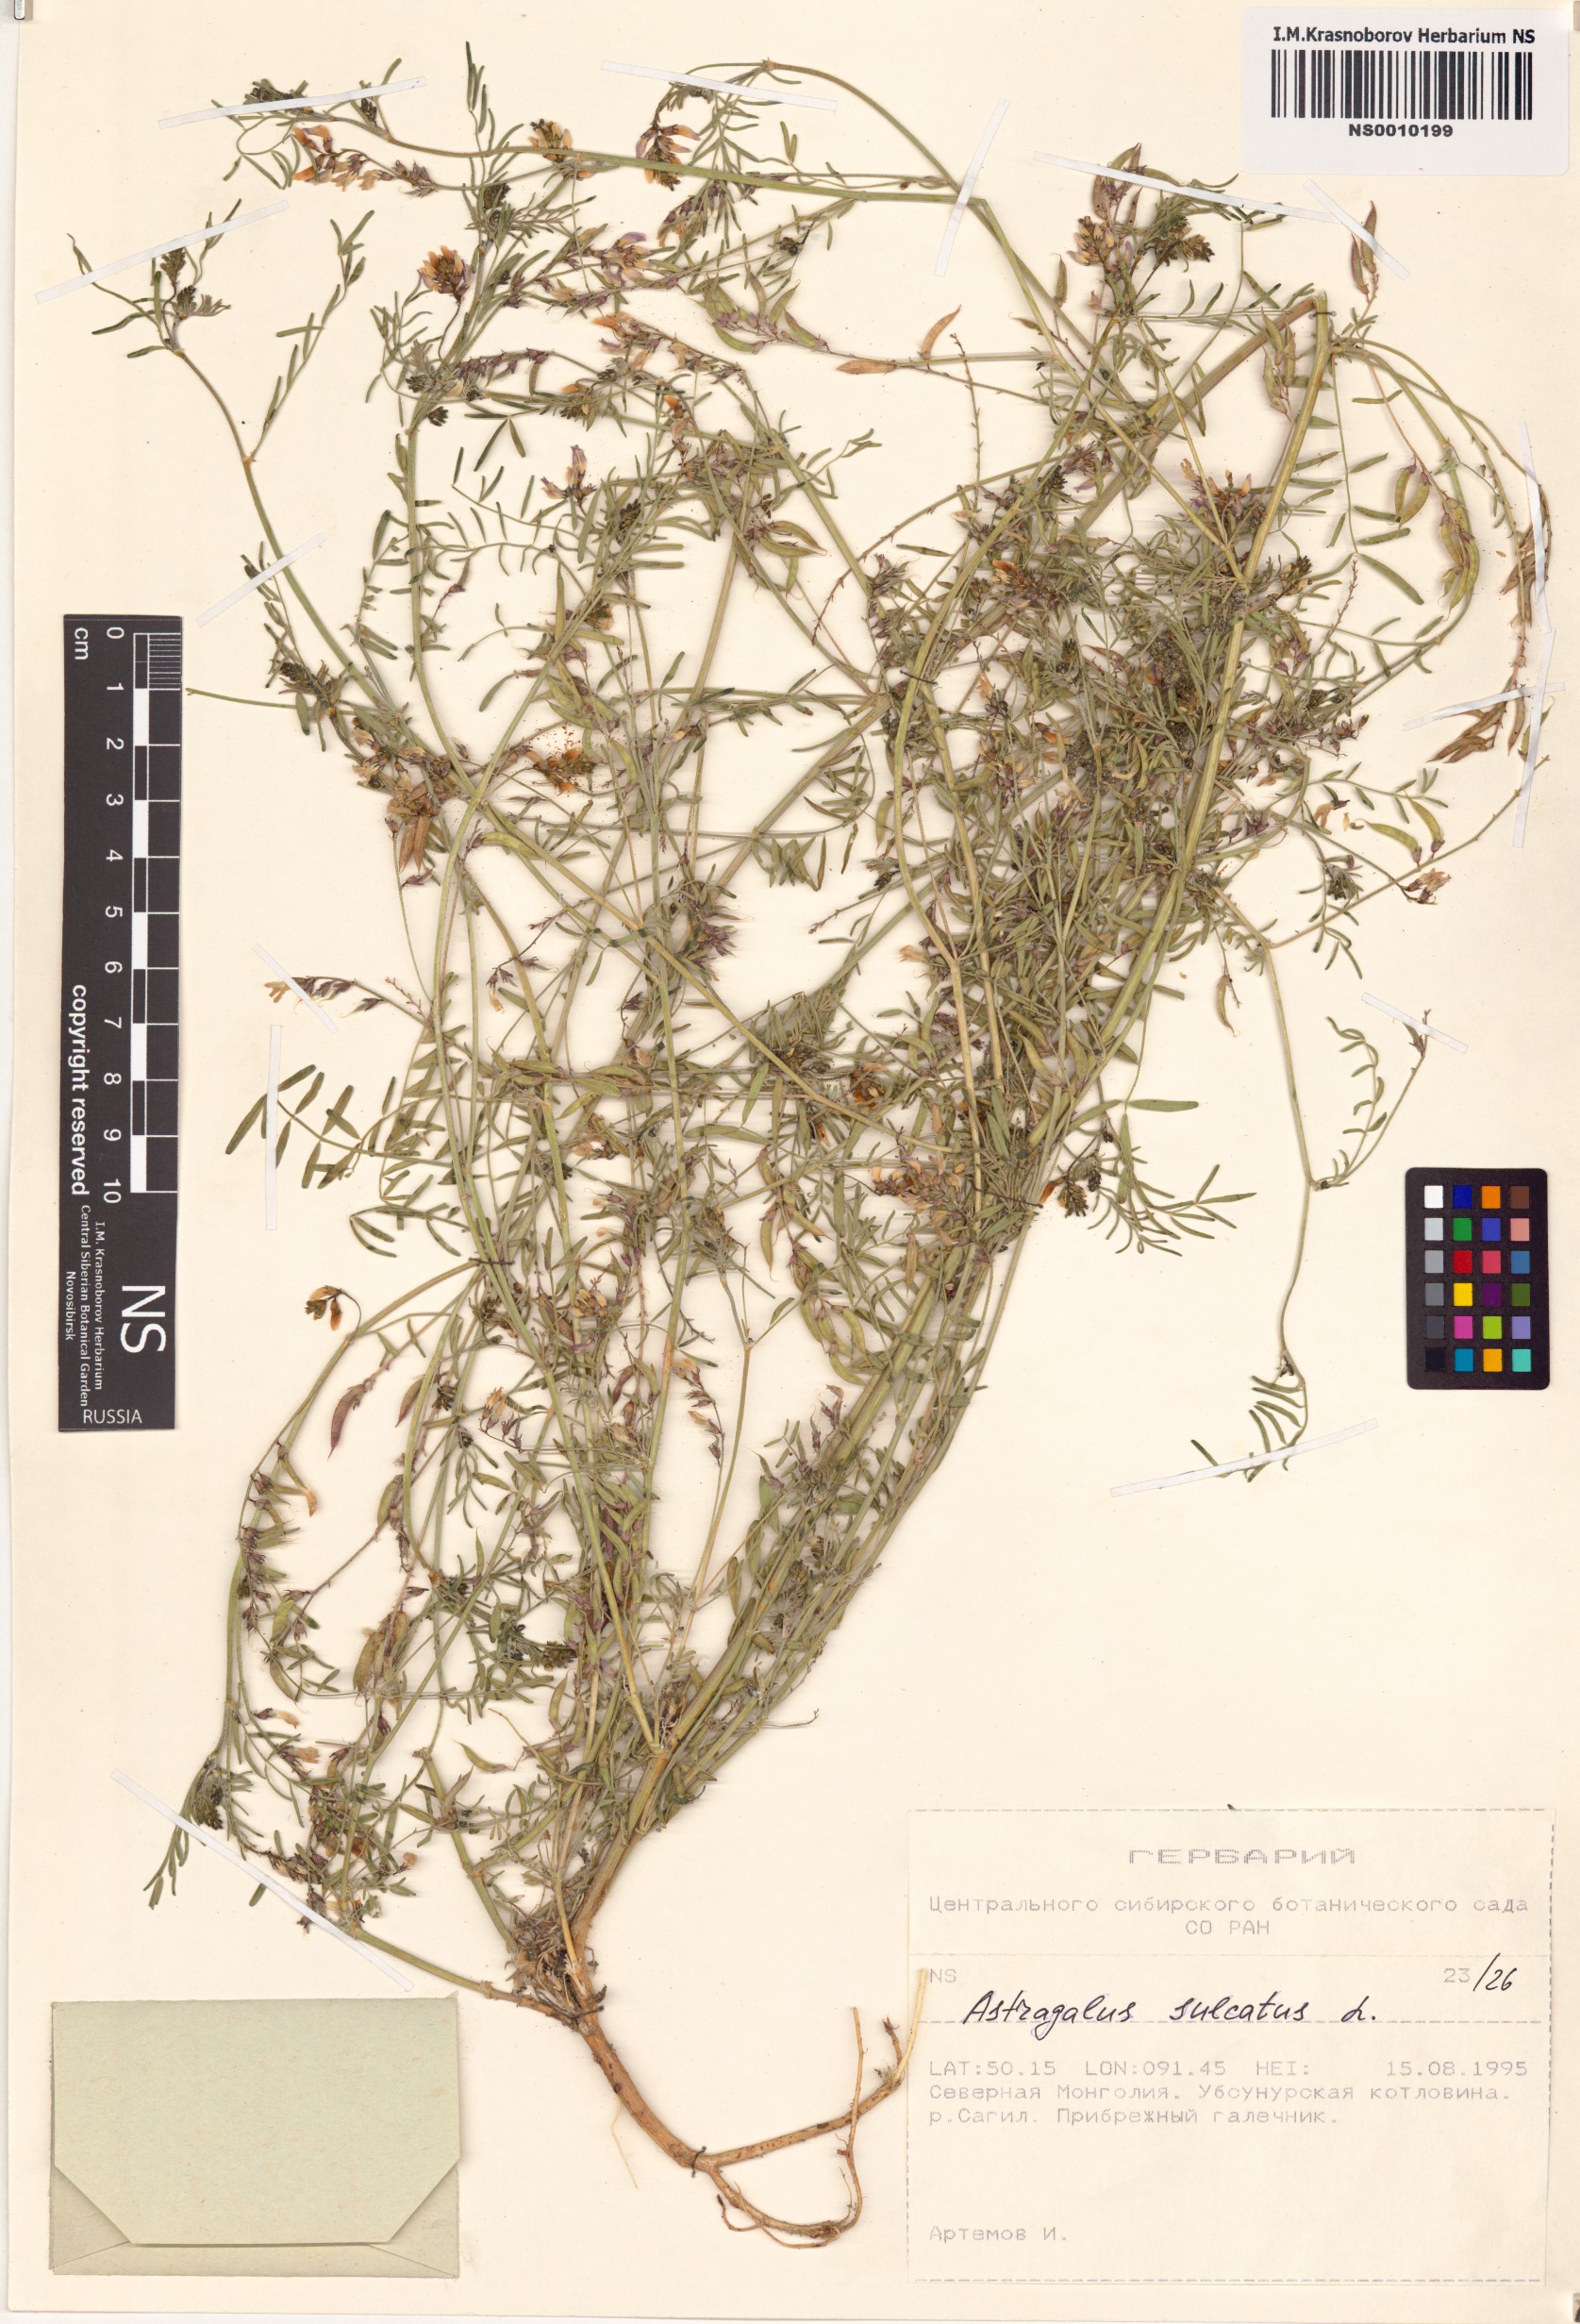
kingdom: Plantae
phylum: Tracheophyta
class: Magnoliopsida
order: Fabales
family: Fabaceae
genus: Astragalus
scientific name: Astragalus sulcatus
